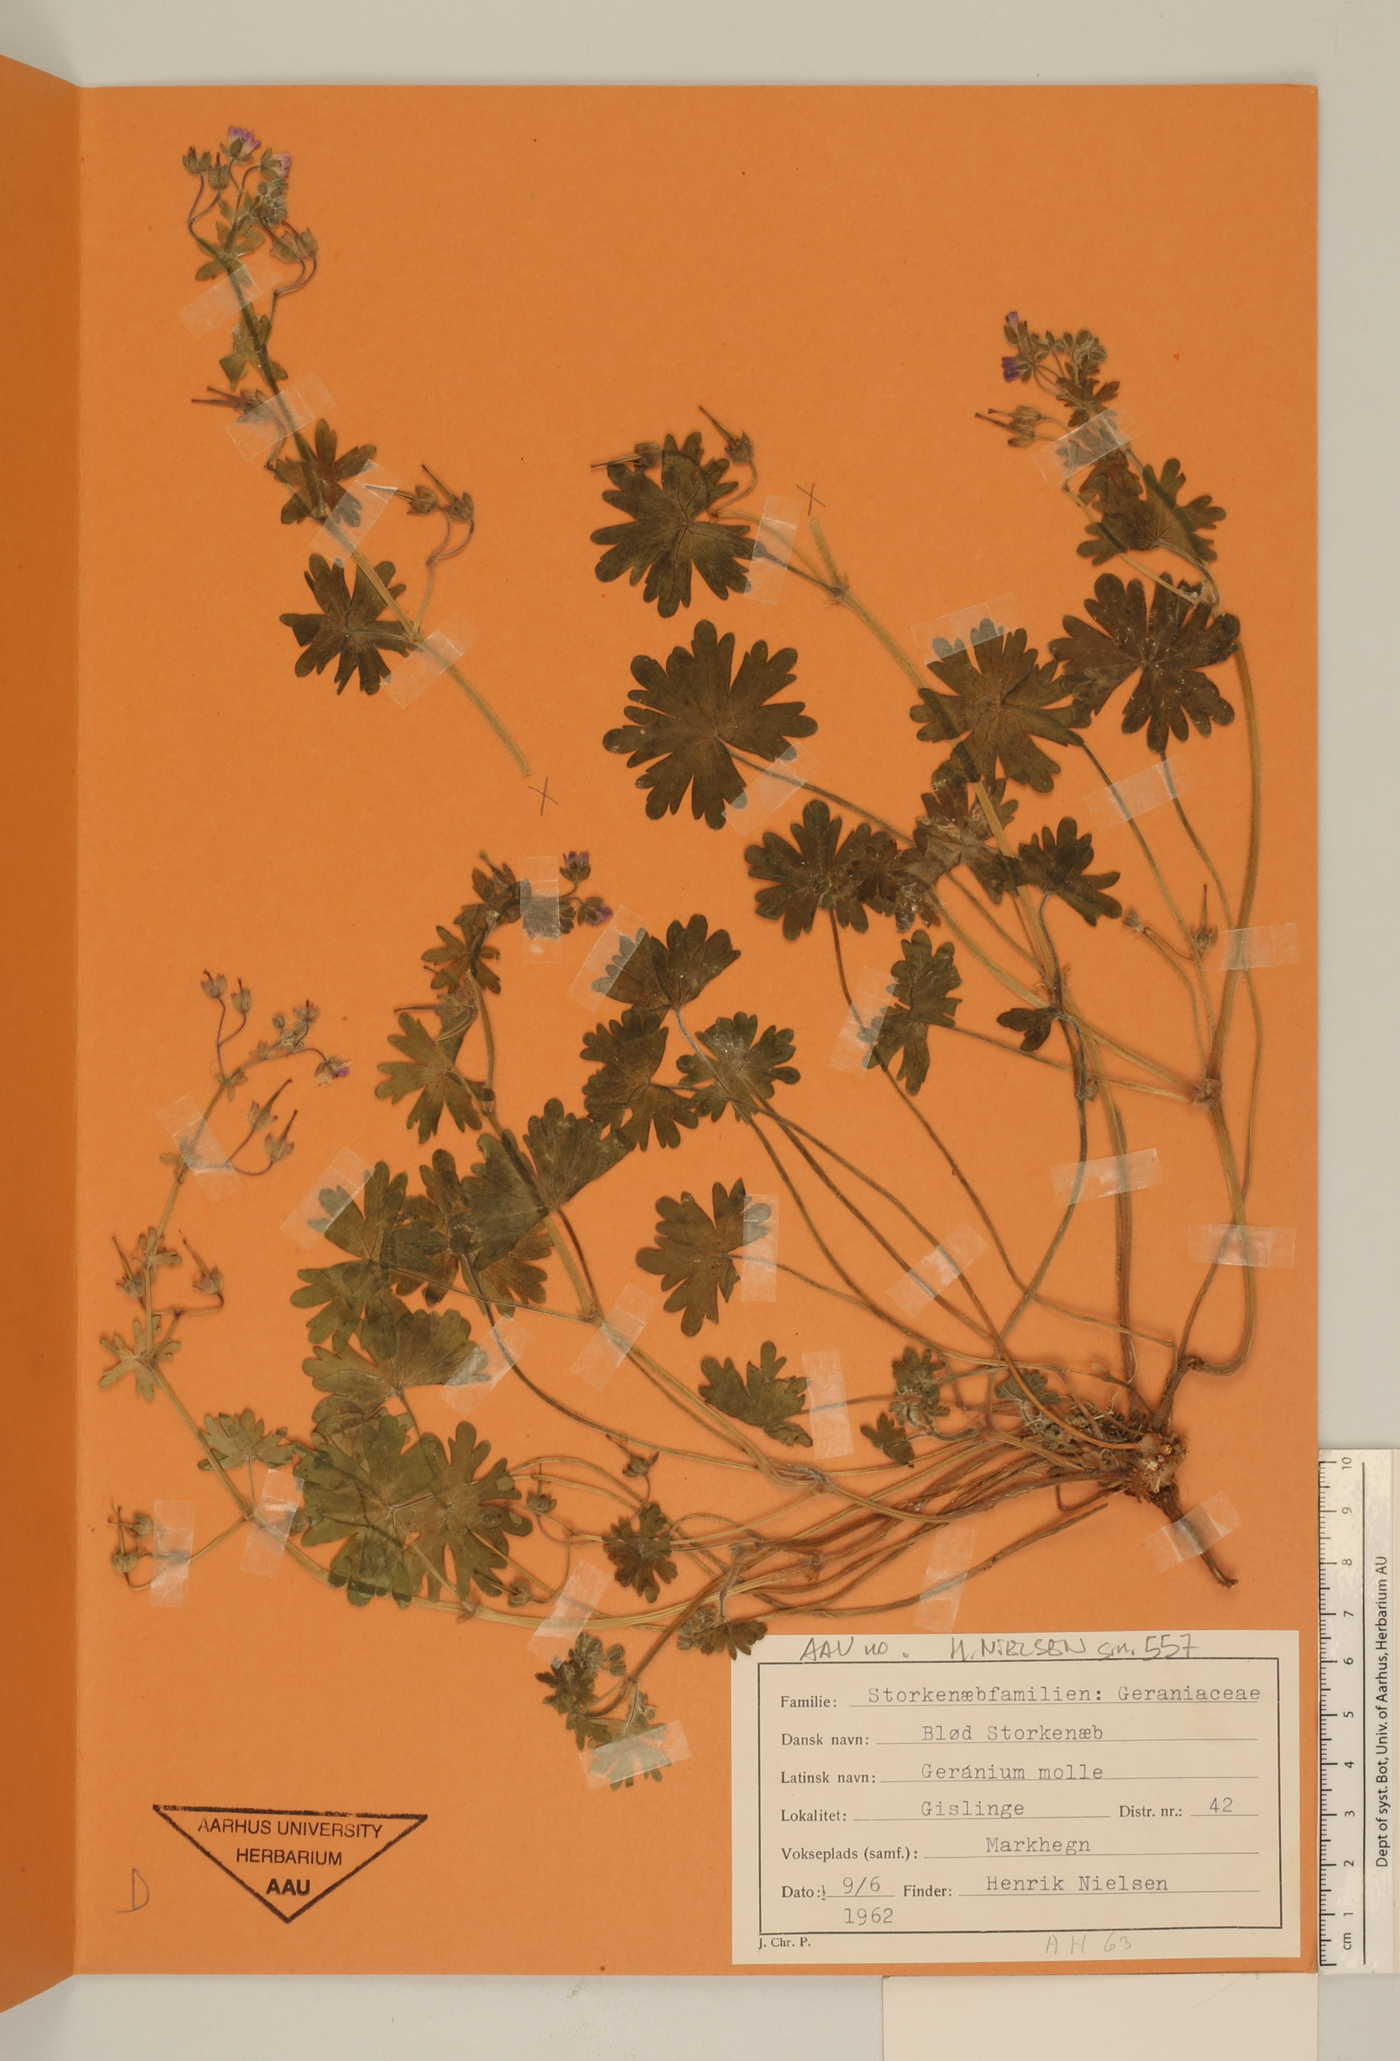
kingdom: Plantae
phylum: Tracheophyta
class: Magnoliopsida
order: Geraniales
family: Geraniaceae
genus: Geranium
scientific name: Geranium molle
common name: Dove's-foot crane's-bill
